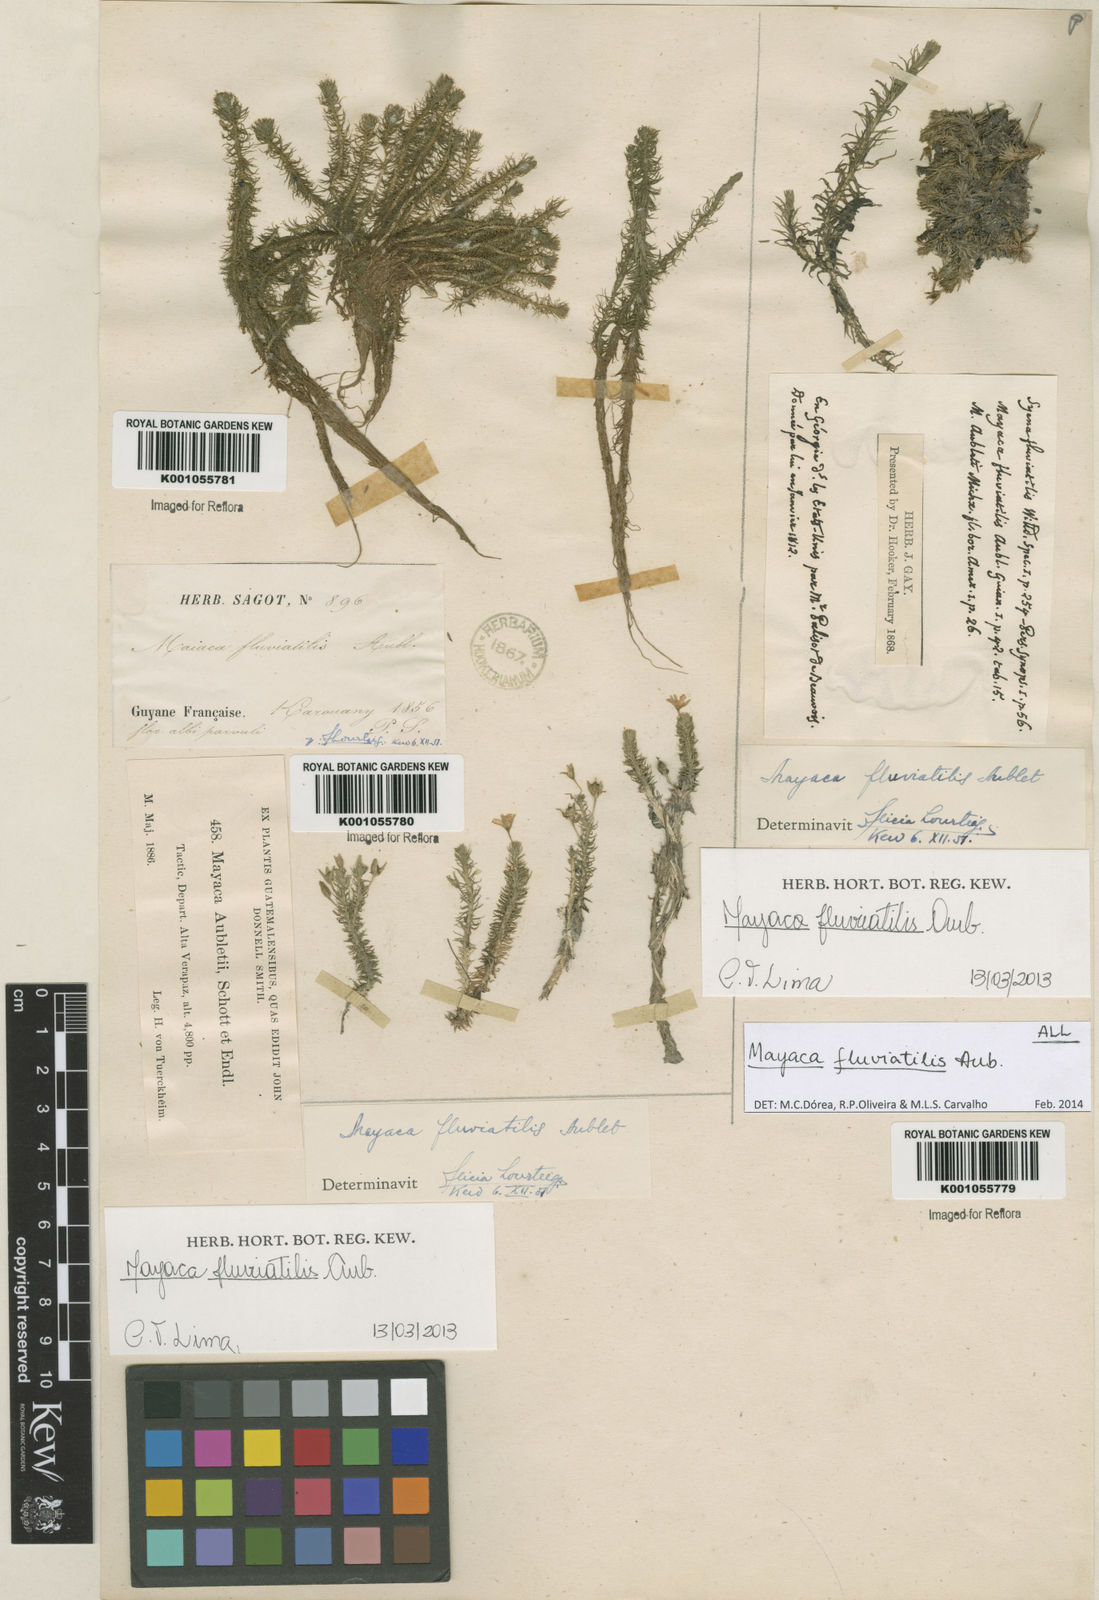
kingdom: Plantae
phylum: Tracheophyta
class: Liliopsida
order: Poales
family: Mayacaceae
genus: Mayaca
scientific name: Mayaca
